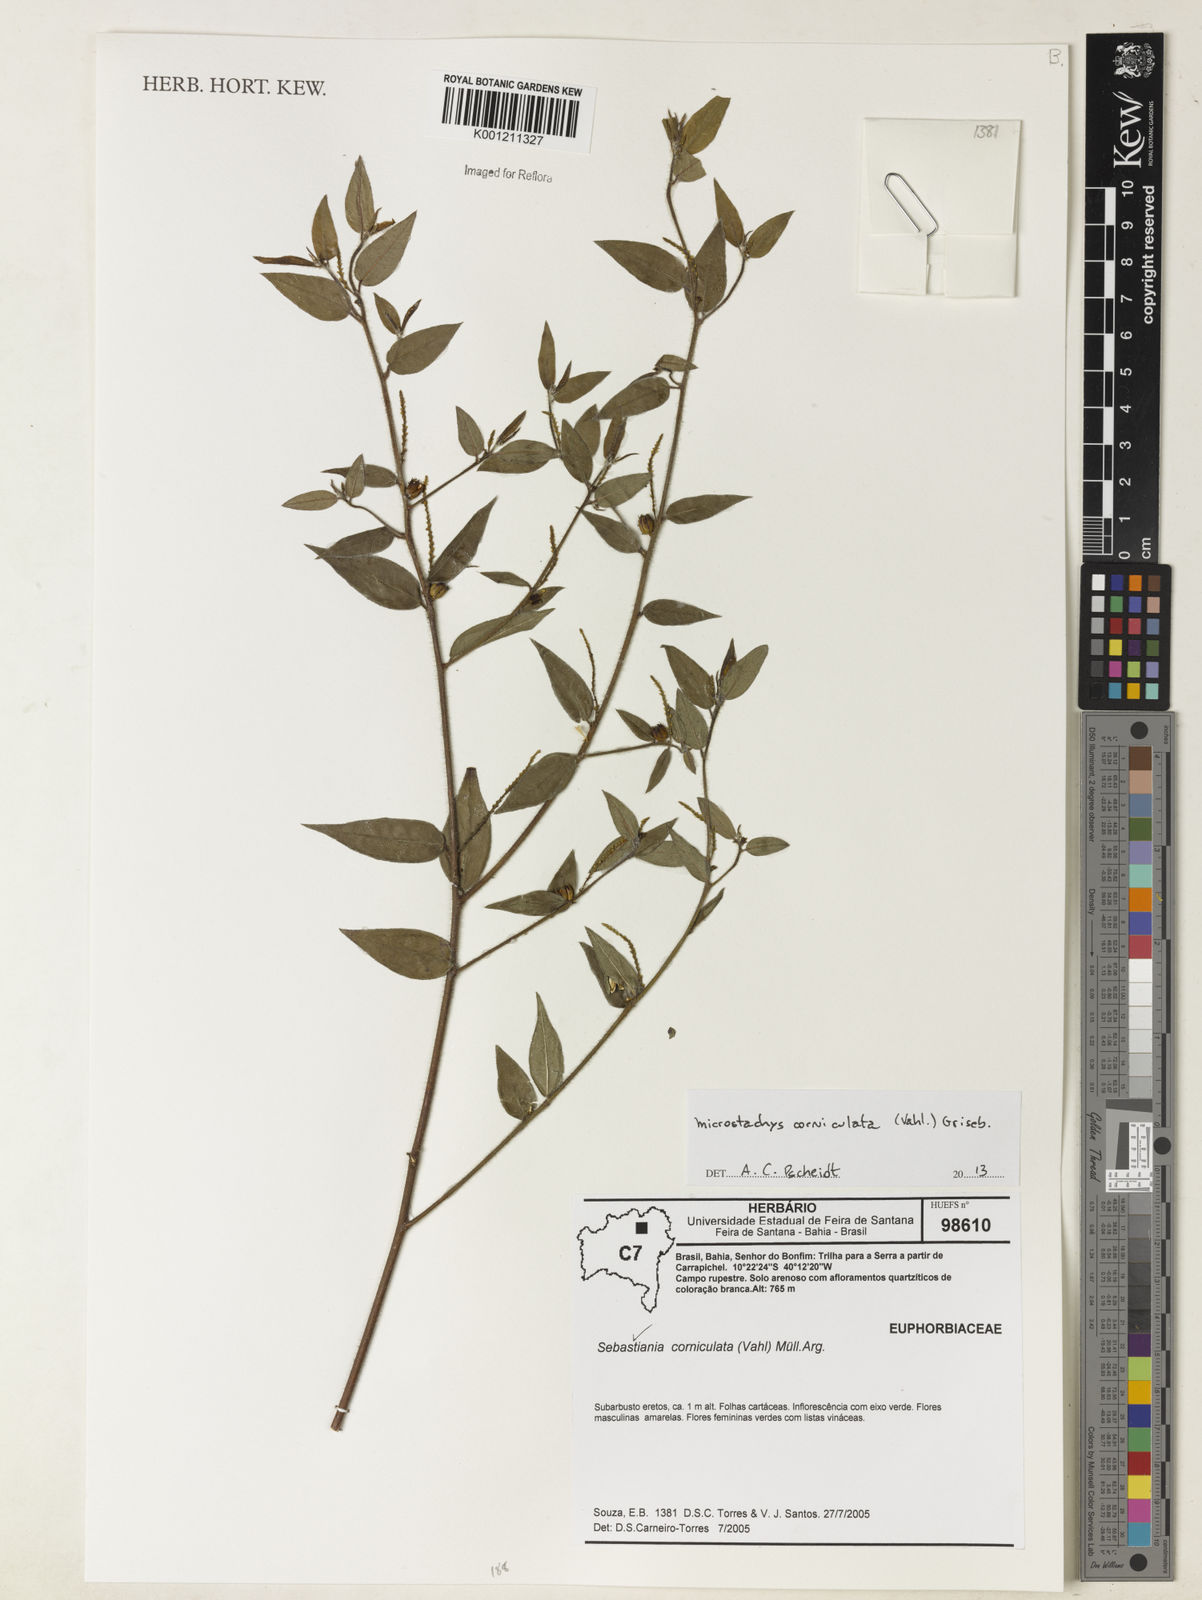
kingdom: Plantae
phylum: Tracheophyta
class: Magnoliopsida
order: Malpighiales
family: Euphorbiaceae
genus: Microstachys
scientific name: Microstachys corniculata
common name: Hato tejas
